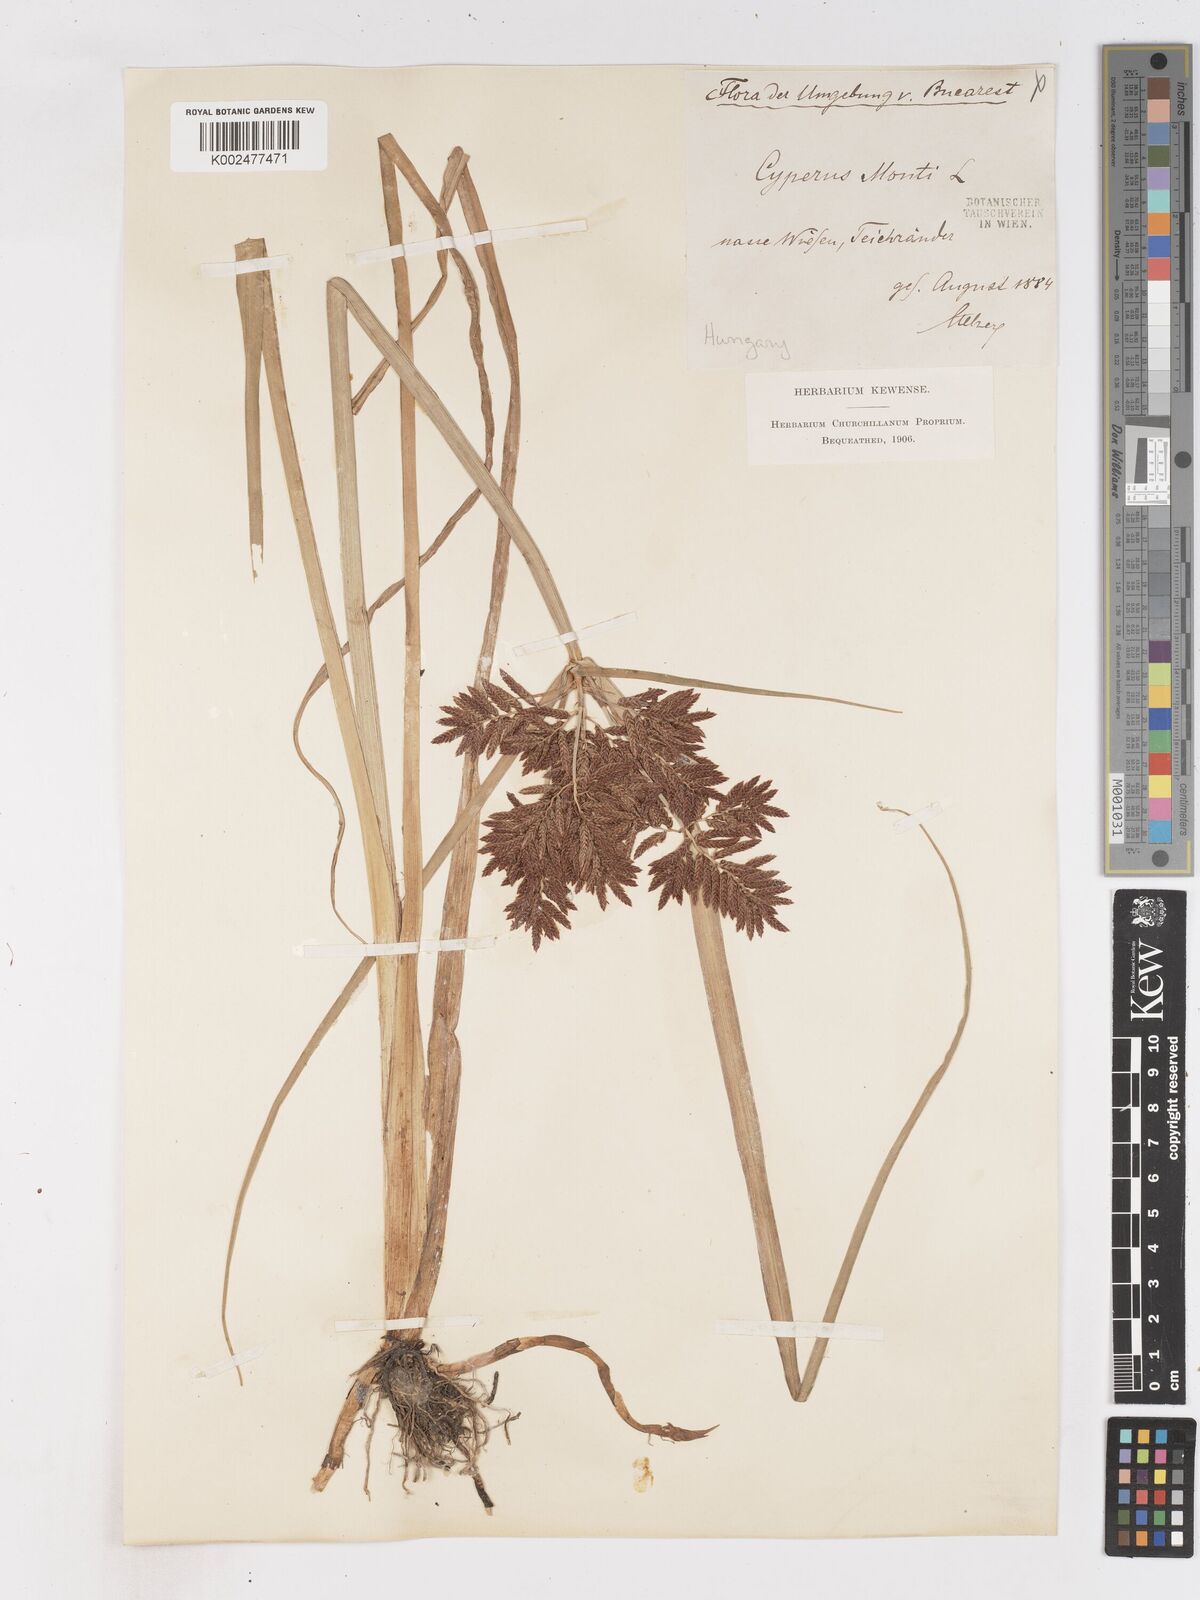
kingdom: Plantae
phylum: Tracheophyta
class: Liliopsida
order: Poales
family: Cyperaceae
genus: Cyperus
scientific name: Cyperus serotinus
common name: Tidalmarsh flatsedge
